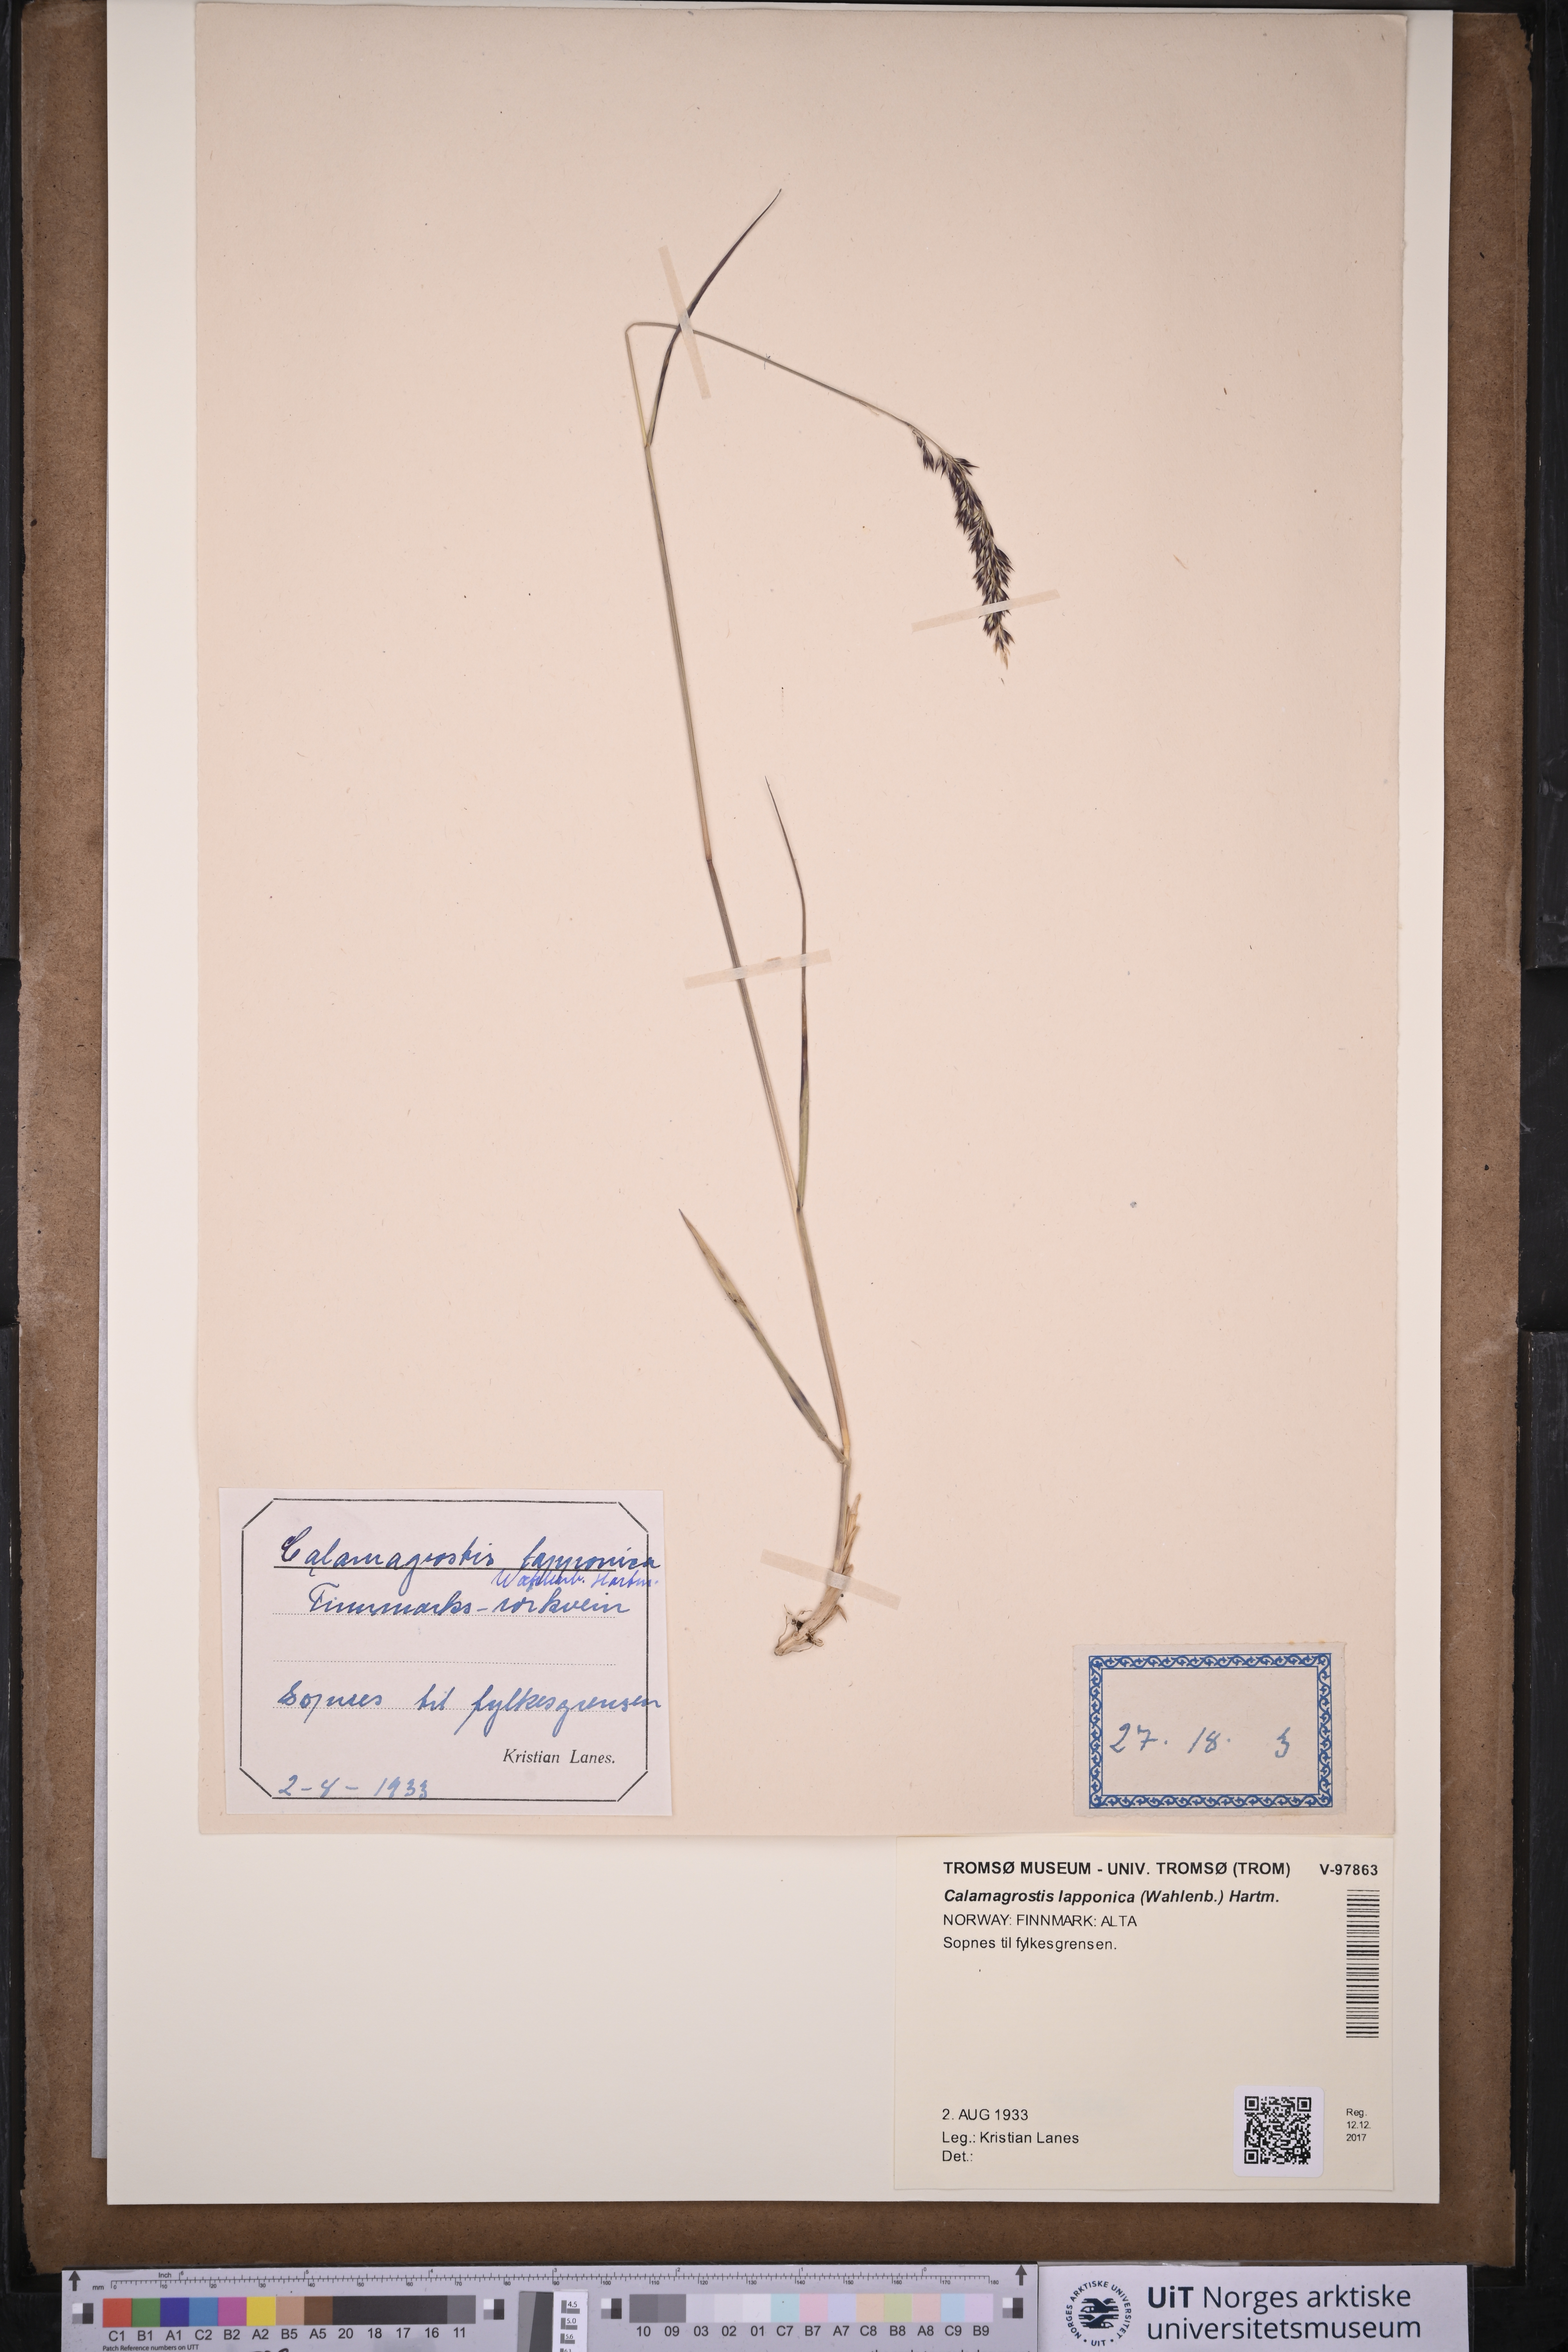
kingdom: Plantae
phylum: Tracheophyta
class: Liliopsida
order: Poales
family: Poaceae
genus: Calamagrostis
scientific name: Calamagrostis lapponica
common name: Lapland reedgrass
